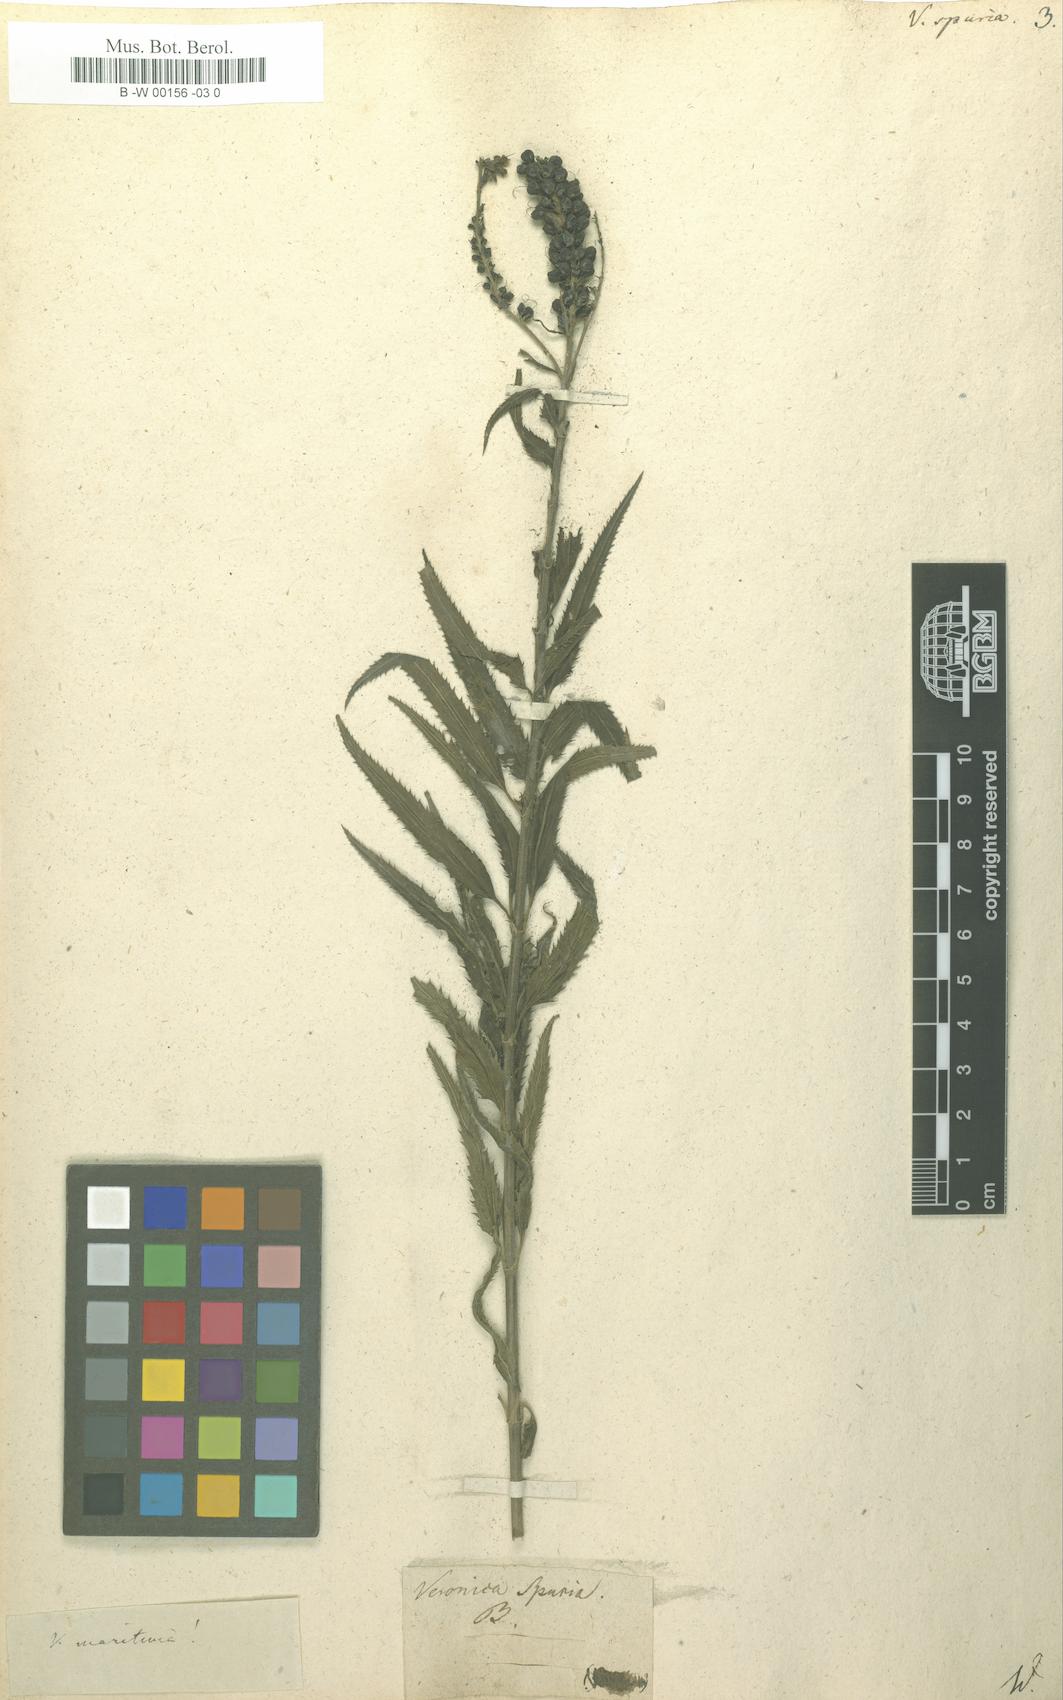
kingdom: Plantae
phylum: Tracheophyta
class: Magnoliopsida
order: Lamiales
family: Plantaginaceae
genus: Veronica
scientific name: Veronica spuria
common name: Bastard speedwell
